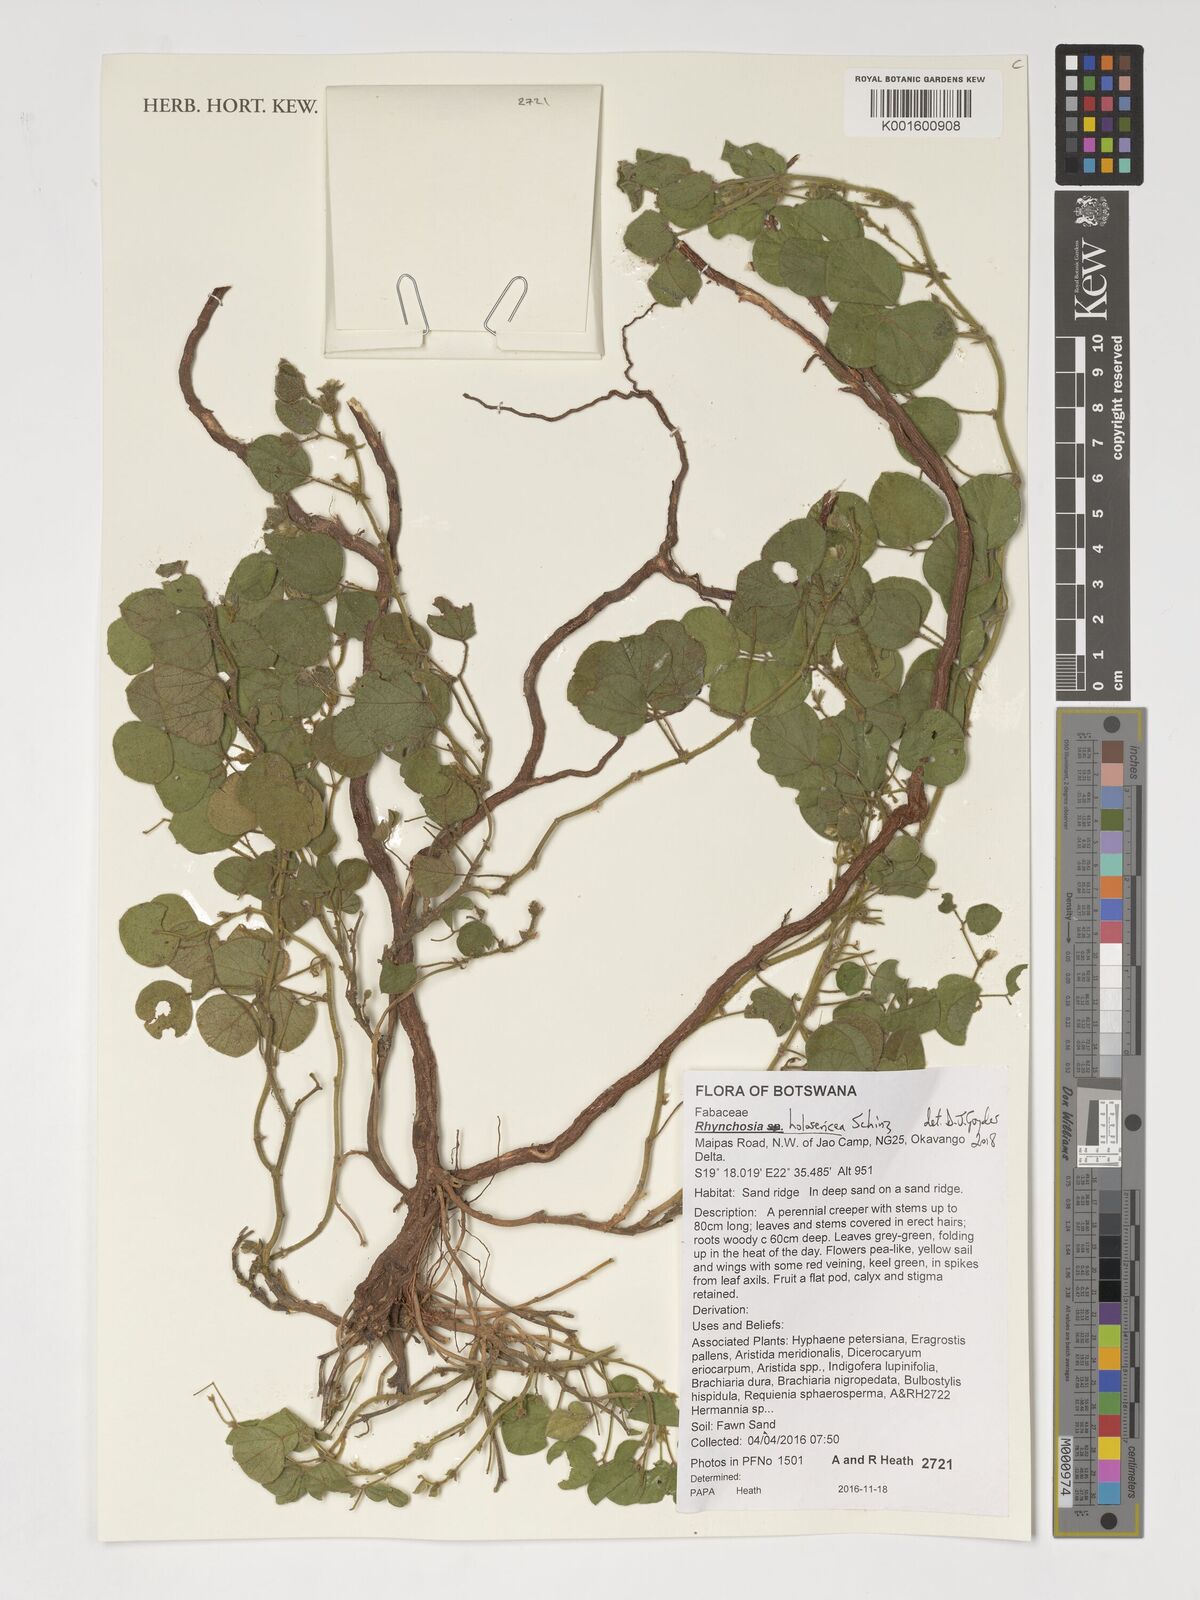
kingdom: Plantae
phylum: Tracheophyta
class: Magnoliopsida
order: Fabales
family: Fabaceae
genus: Rhynchosia
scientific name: Rhynchosia holosericea
